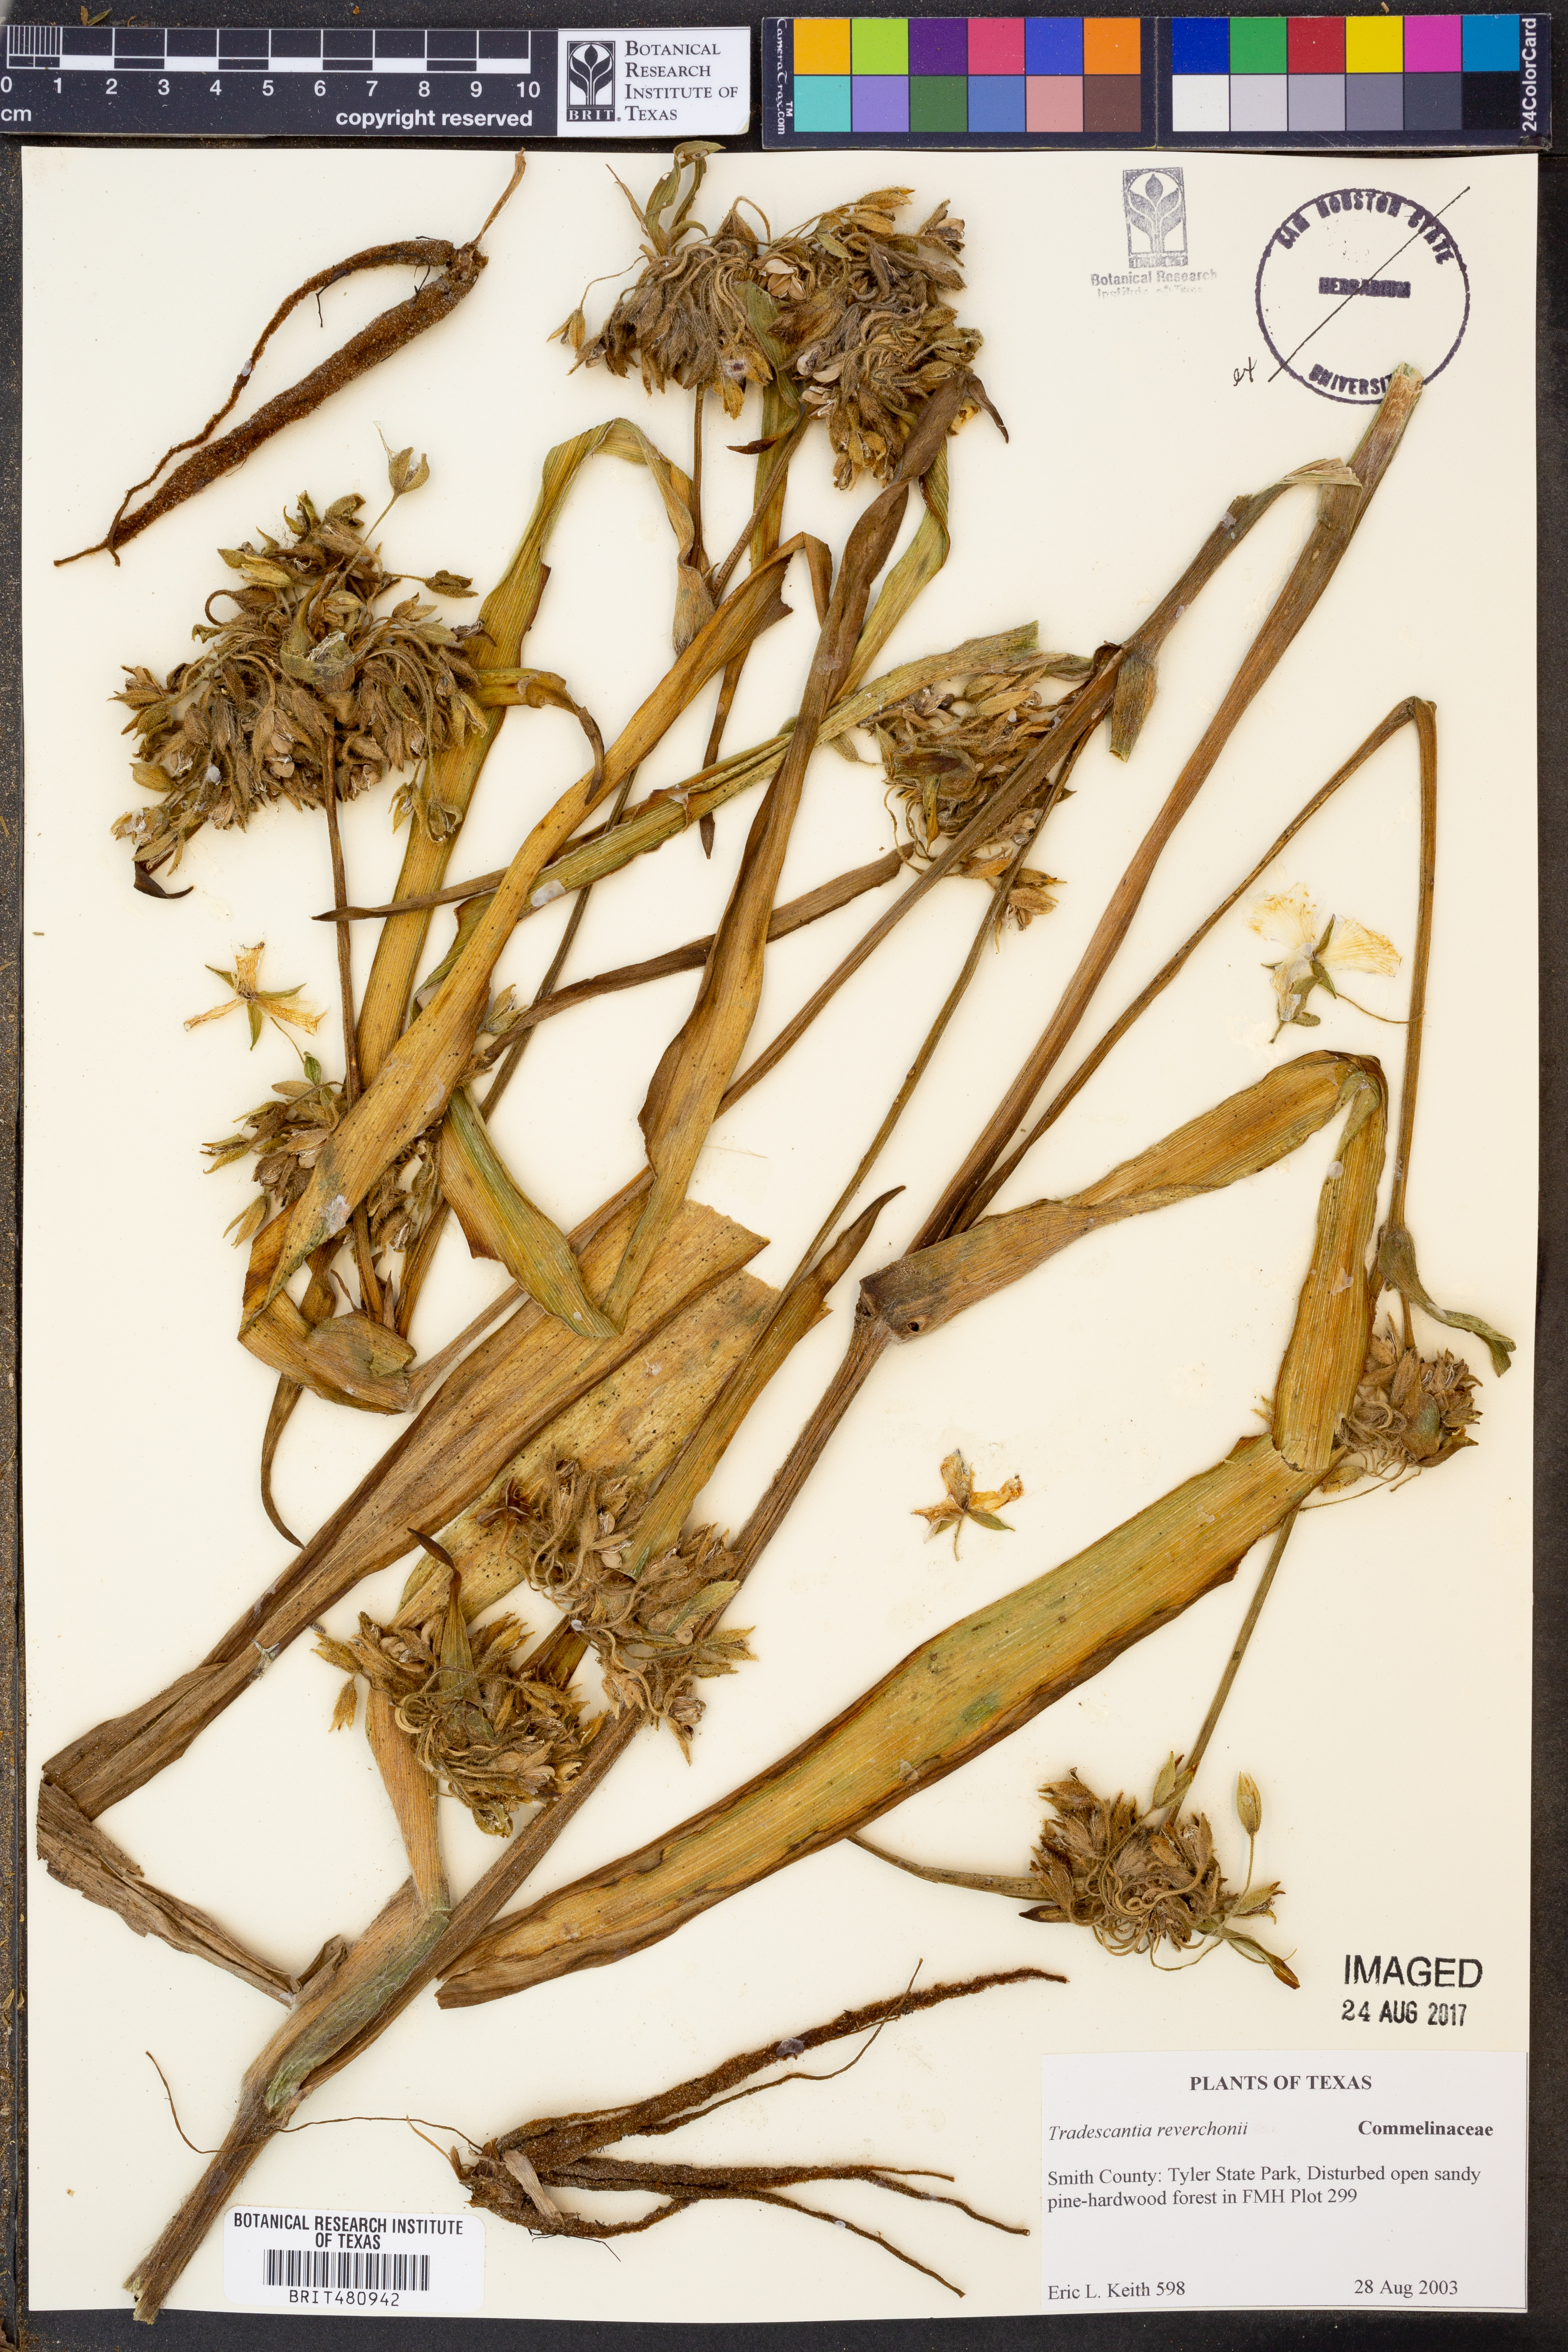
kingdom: Plantae
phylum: Tracheophyta
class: Liliopsida
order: Commelinales
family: Commelinaceae
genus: Tradescantia
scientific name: Tradescantia reverchonii
